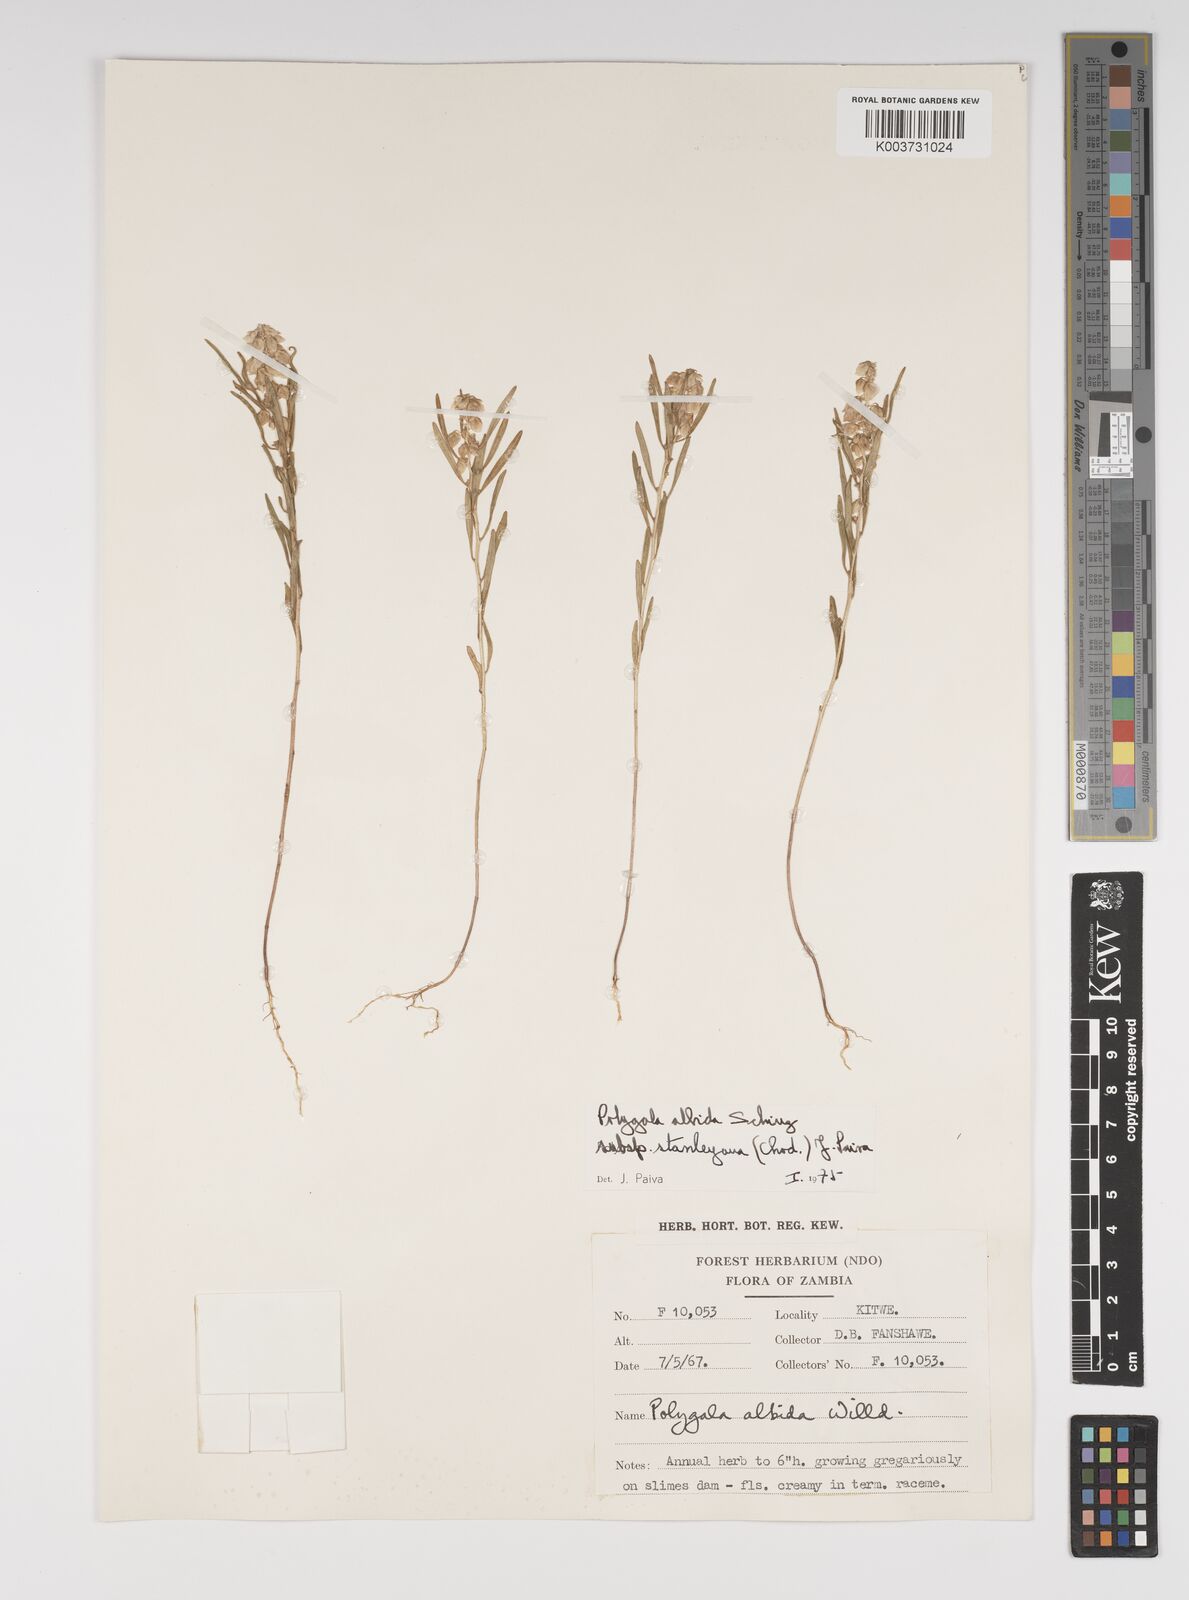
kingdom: Plantae
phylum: Tracheophyta
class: Magnoliopsida
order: Fabales
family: Polygalaceae
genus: Polygala
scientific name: Polygala albida
